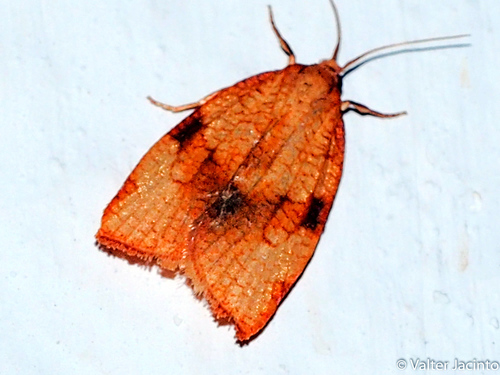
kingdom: Animalia
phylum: Arthropoda
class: Insecta
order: Lepidoptera
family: Tortricidae
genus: Cacoecimorpha
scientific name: Cacoecimorpha pronubana
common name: Carnation tortrix
